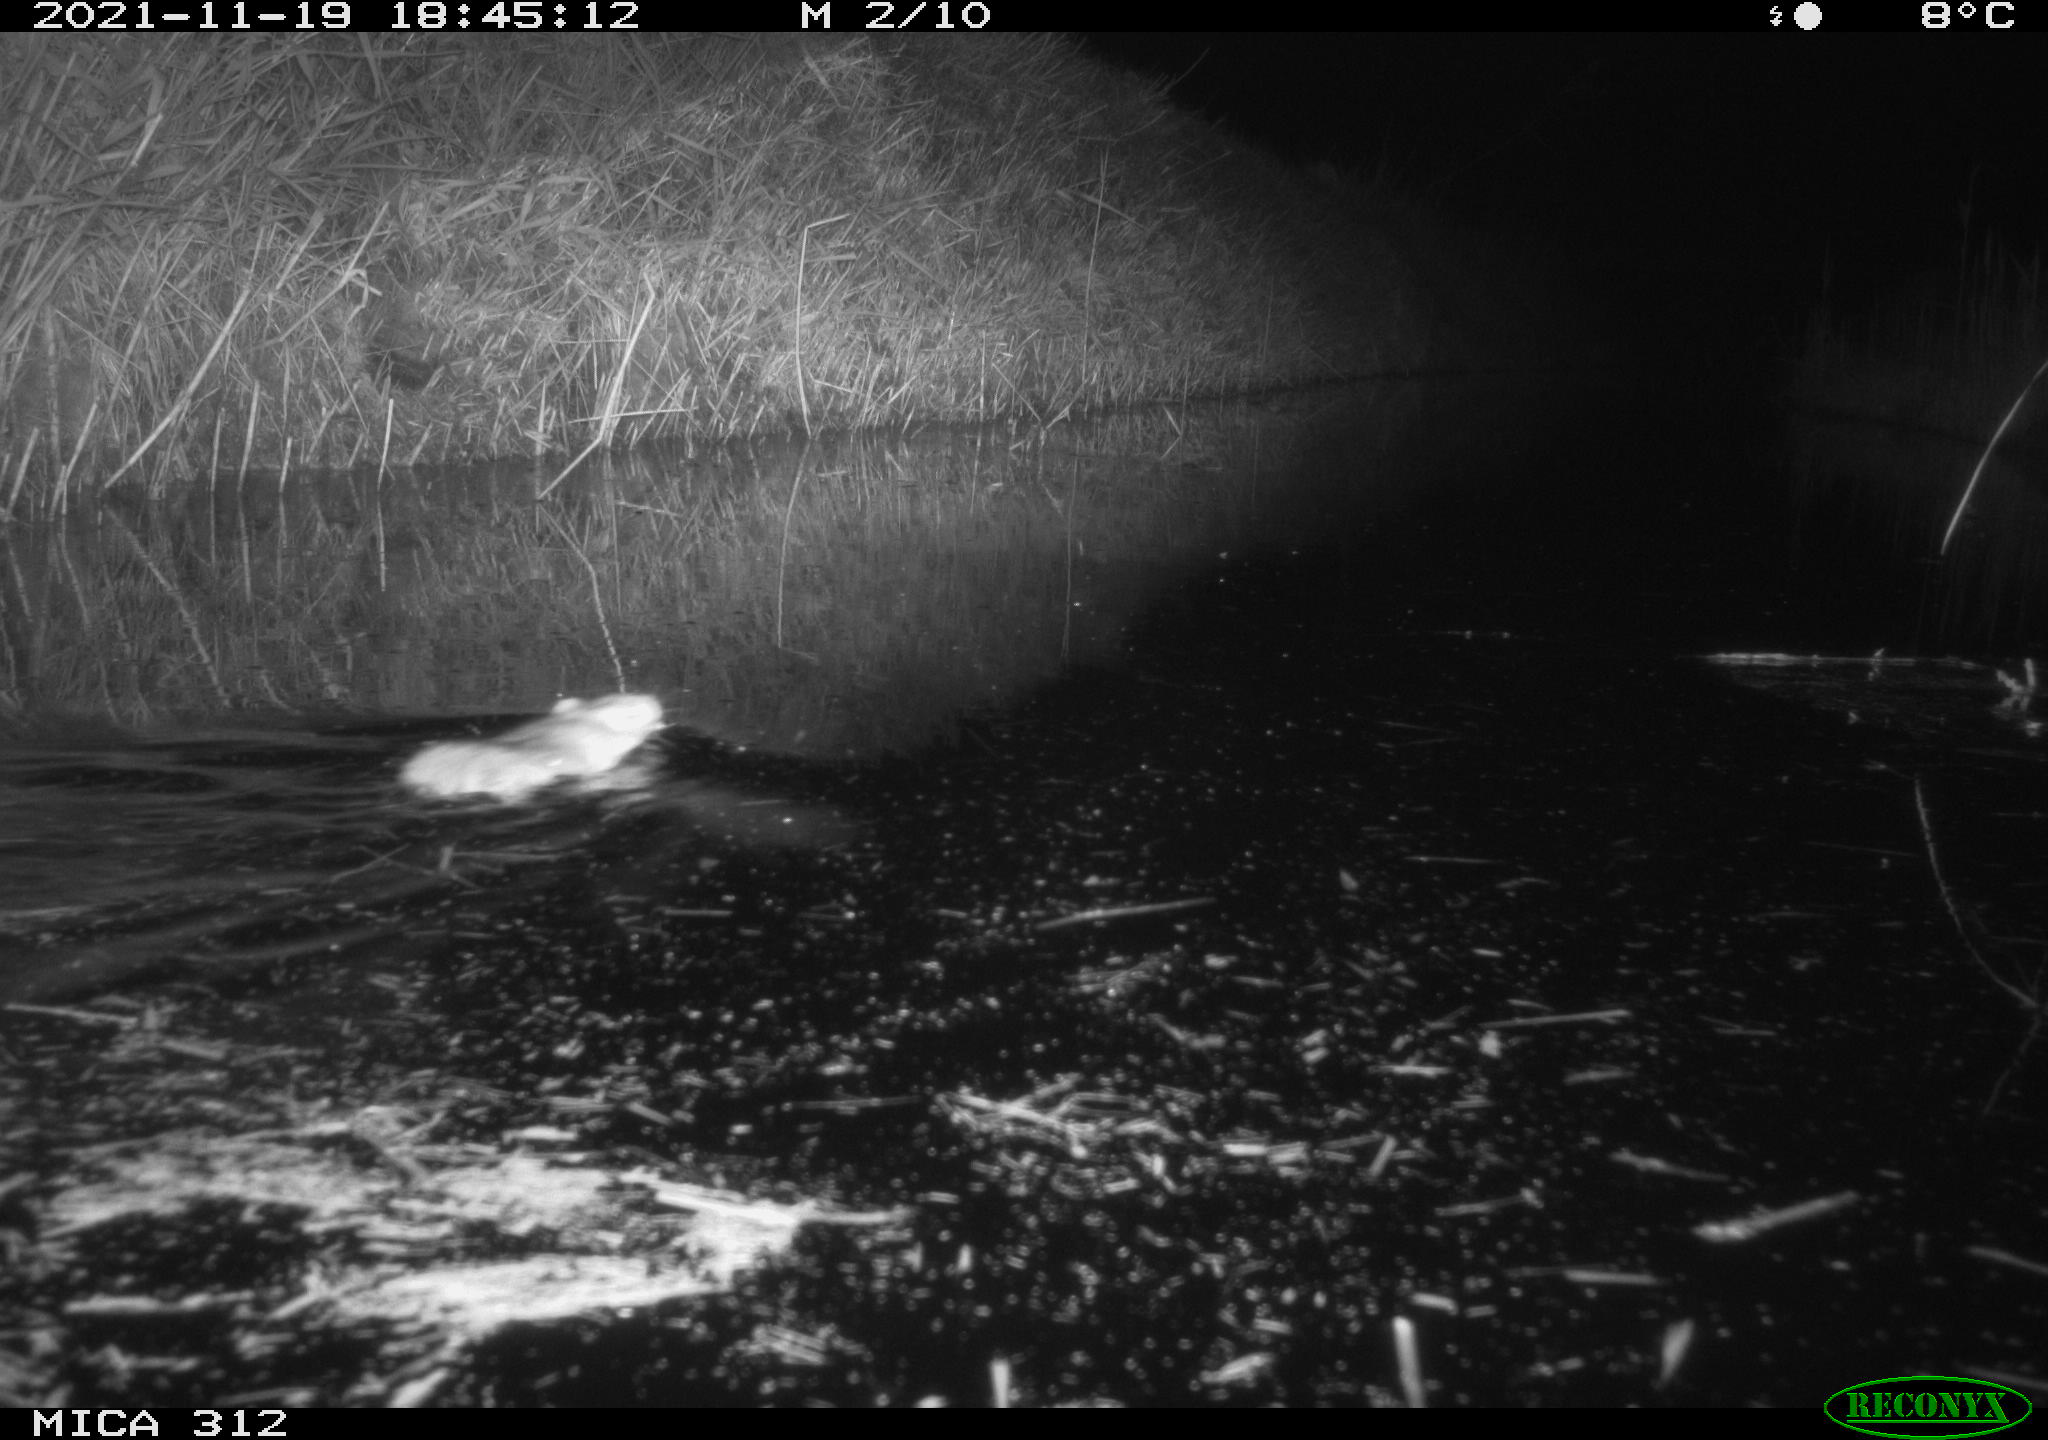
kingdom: Animalia
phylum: Chordata
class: Mammalia
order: Rodentia
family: Muridae
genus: Rattus
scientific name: Rattus norvegicus
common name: Brown rat
